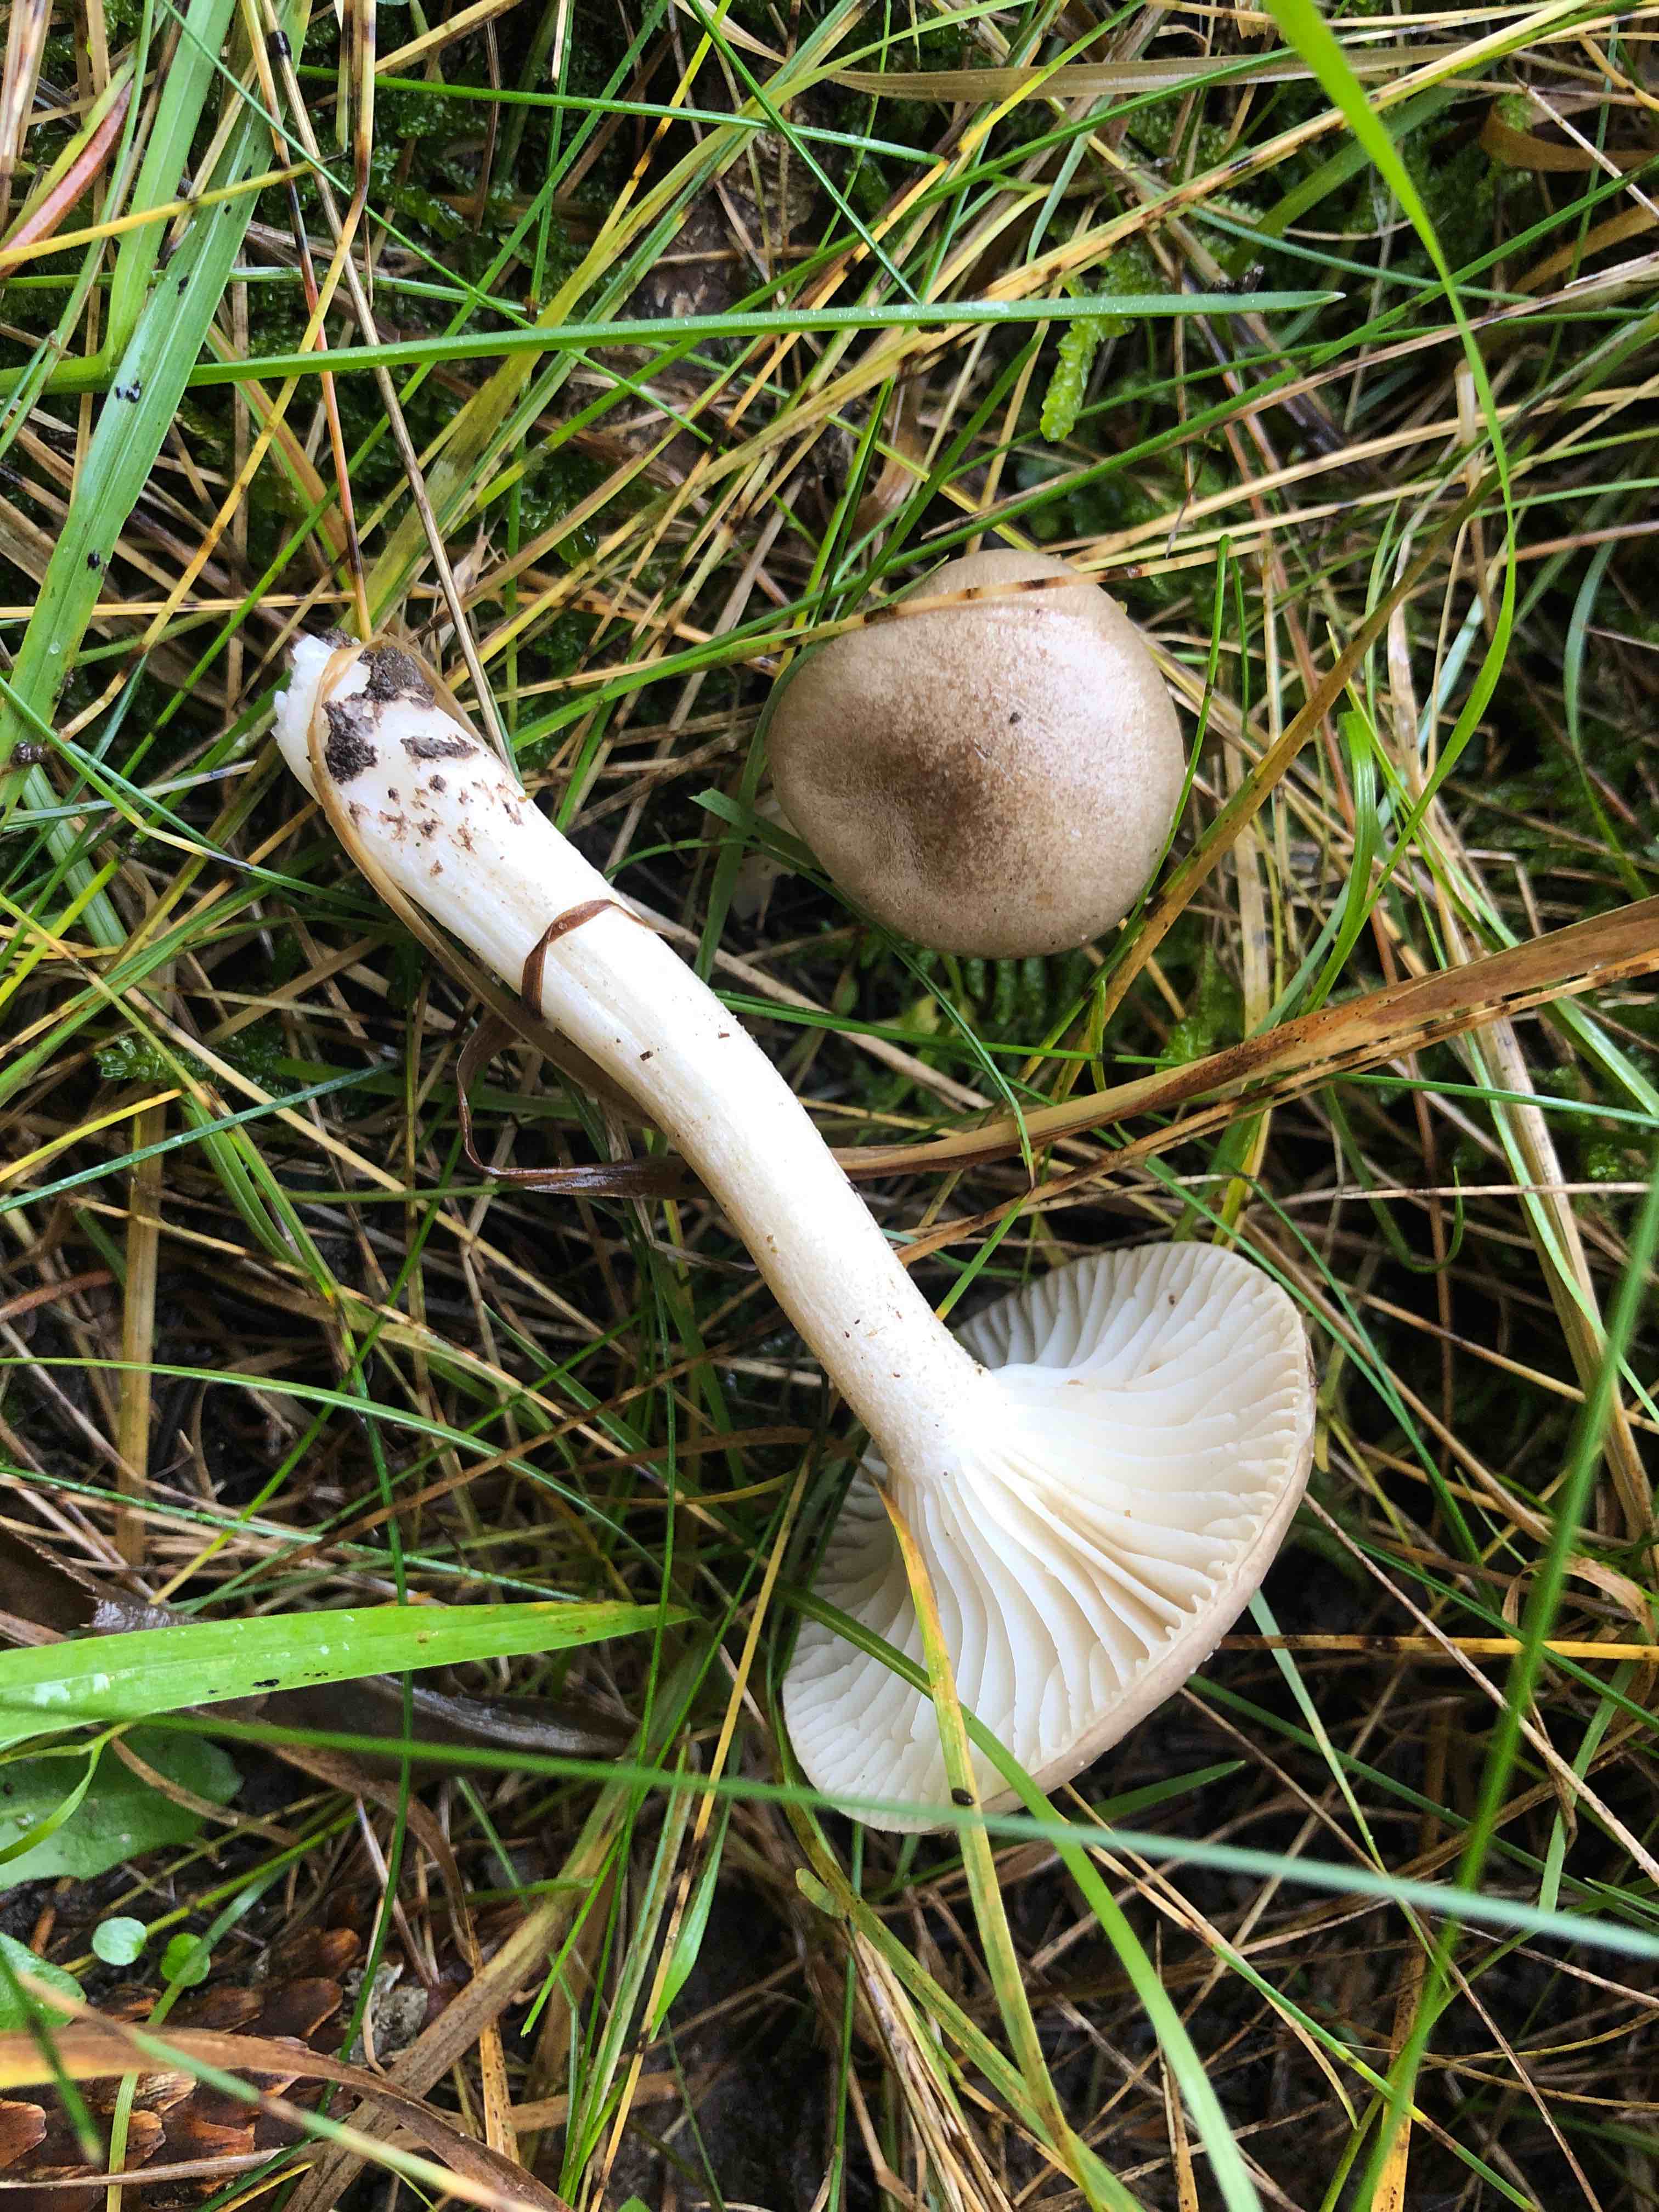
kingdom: Fungi
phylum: Basidiomycota
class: Agaricomycetes
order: Agaricales
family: Hygrophoraceae
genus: Hygrophorus
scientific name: Hygrophorus agathosmus
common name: vellugtende sneglehat
